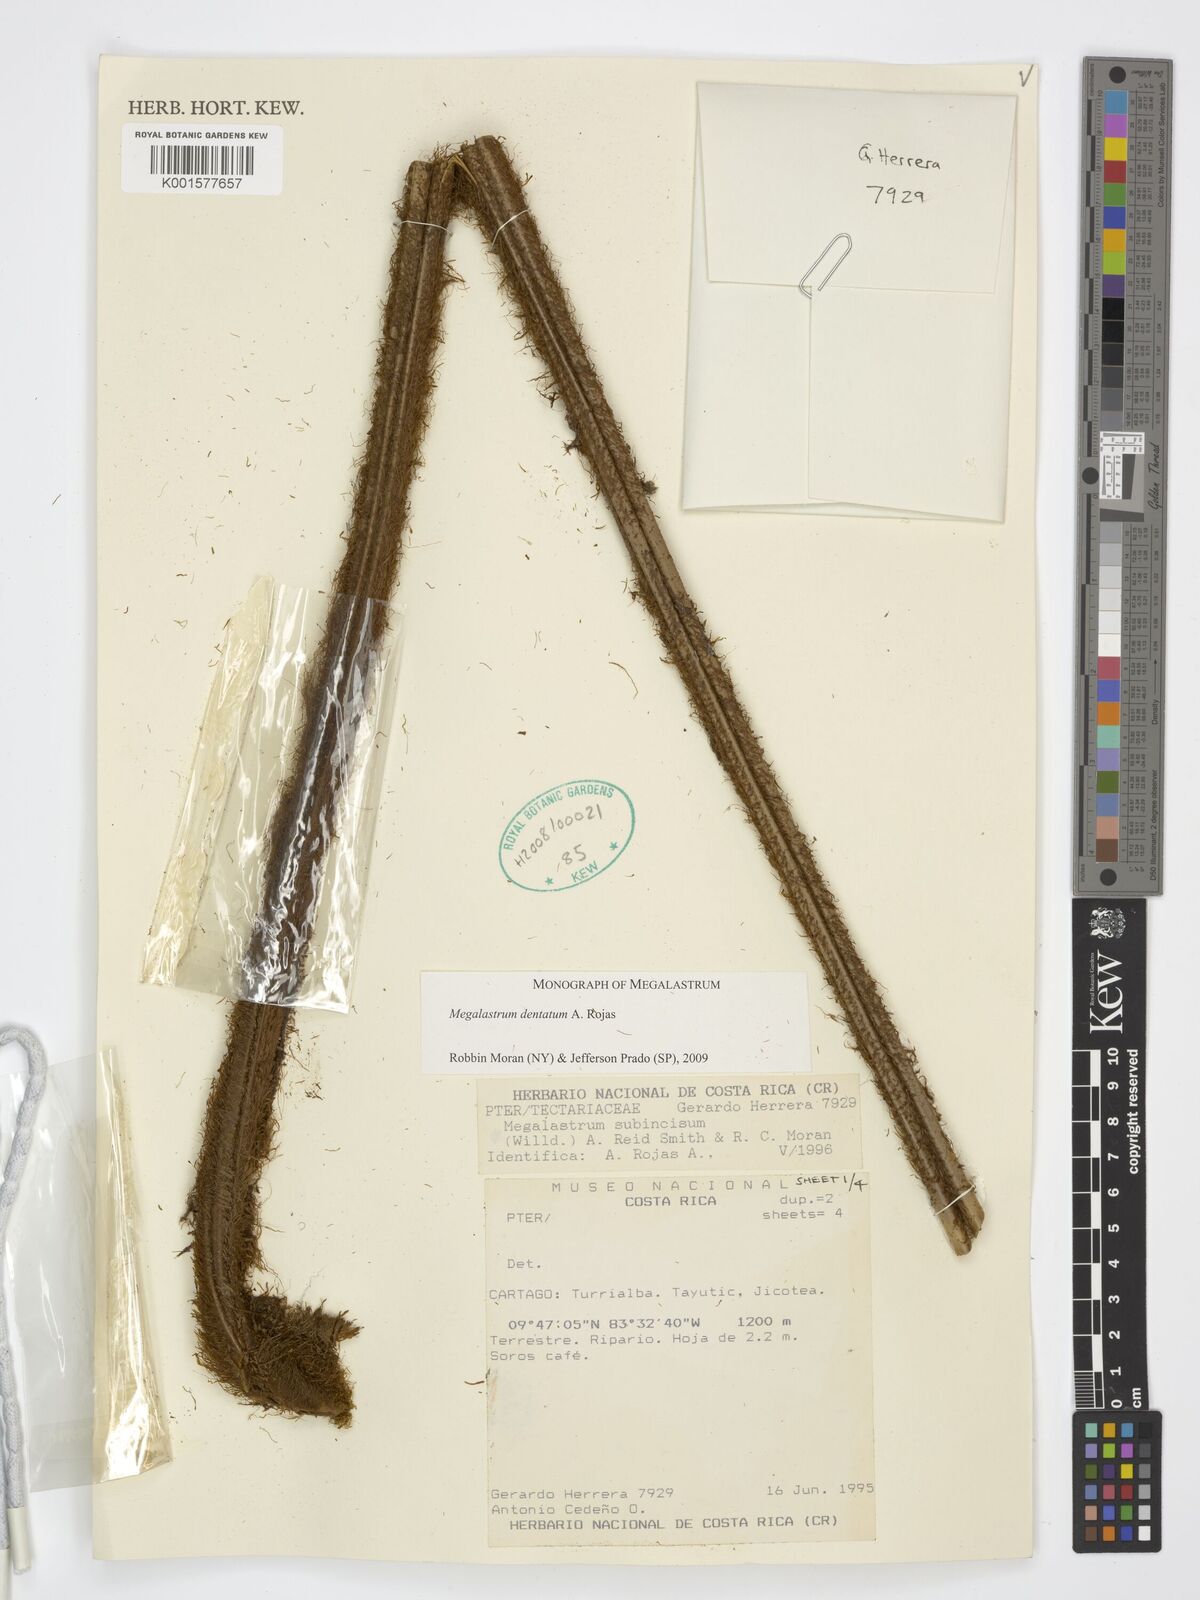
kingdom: Plantae
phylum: Tracheophyta
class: Polypodiopsida
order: Polypodiales
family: Dryopteridaceae
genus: Megalastrum
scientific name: Megalastrum dentatum
